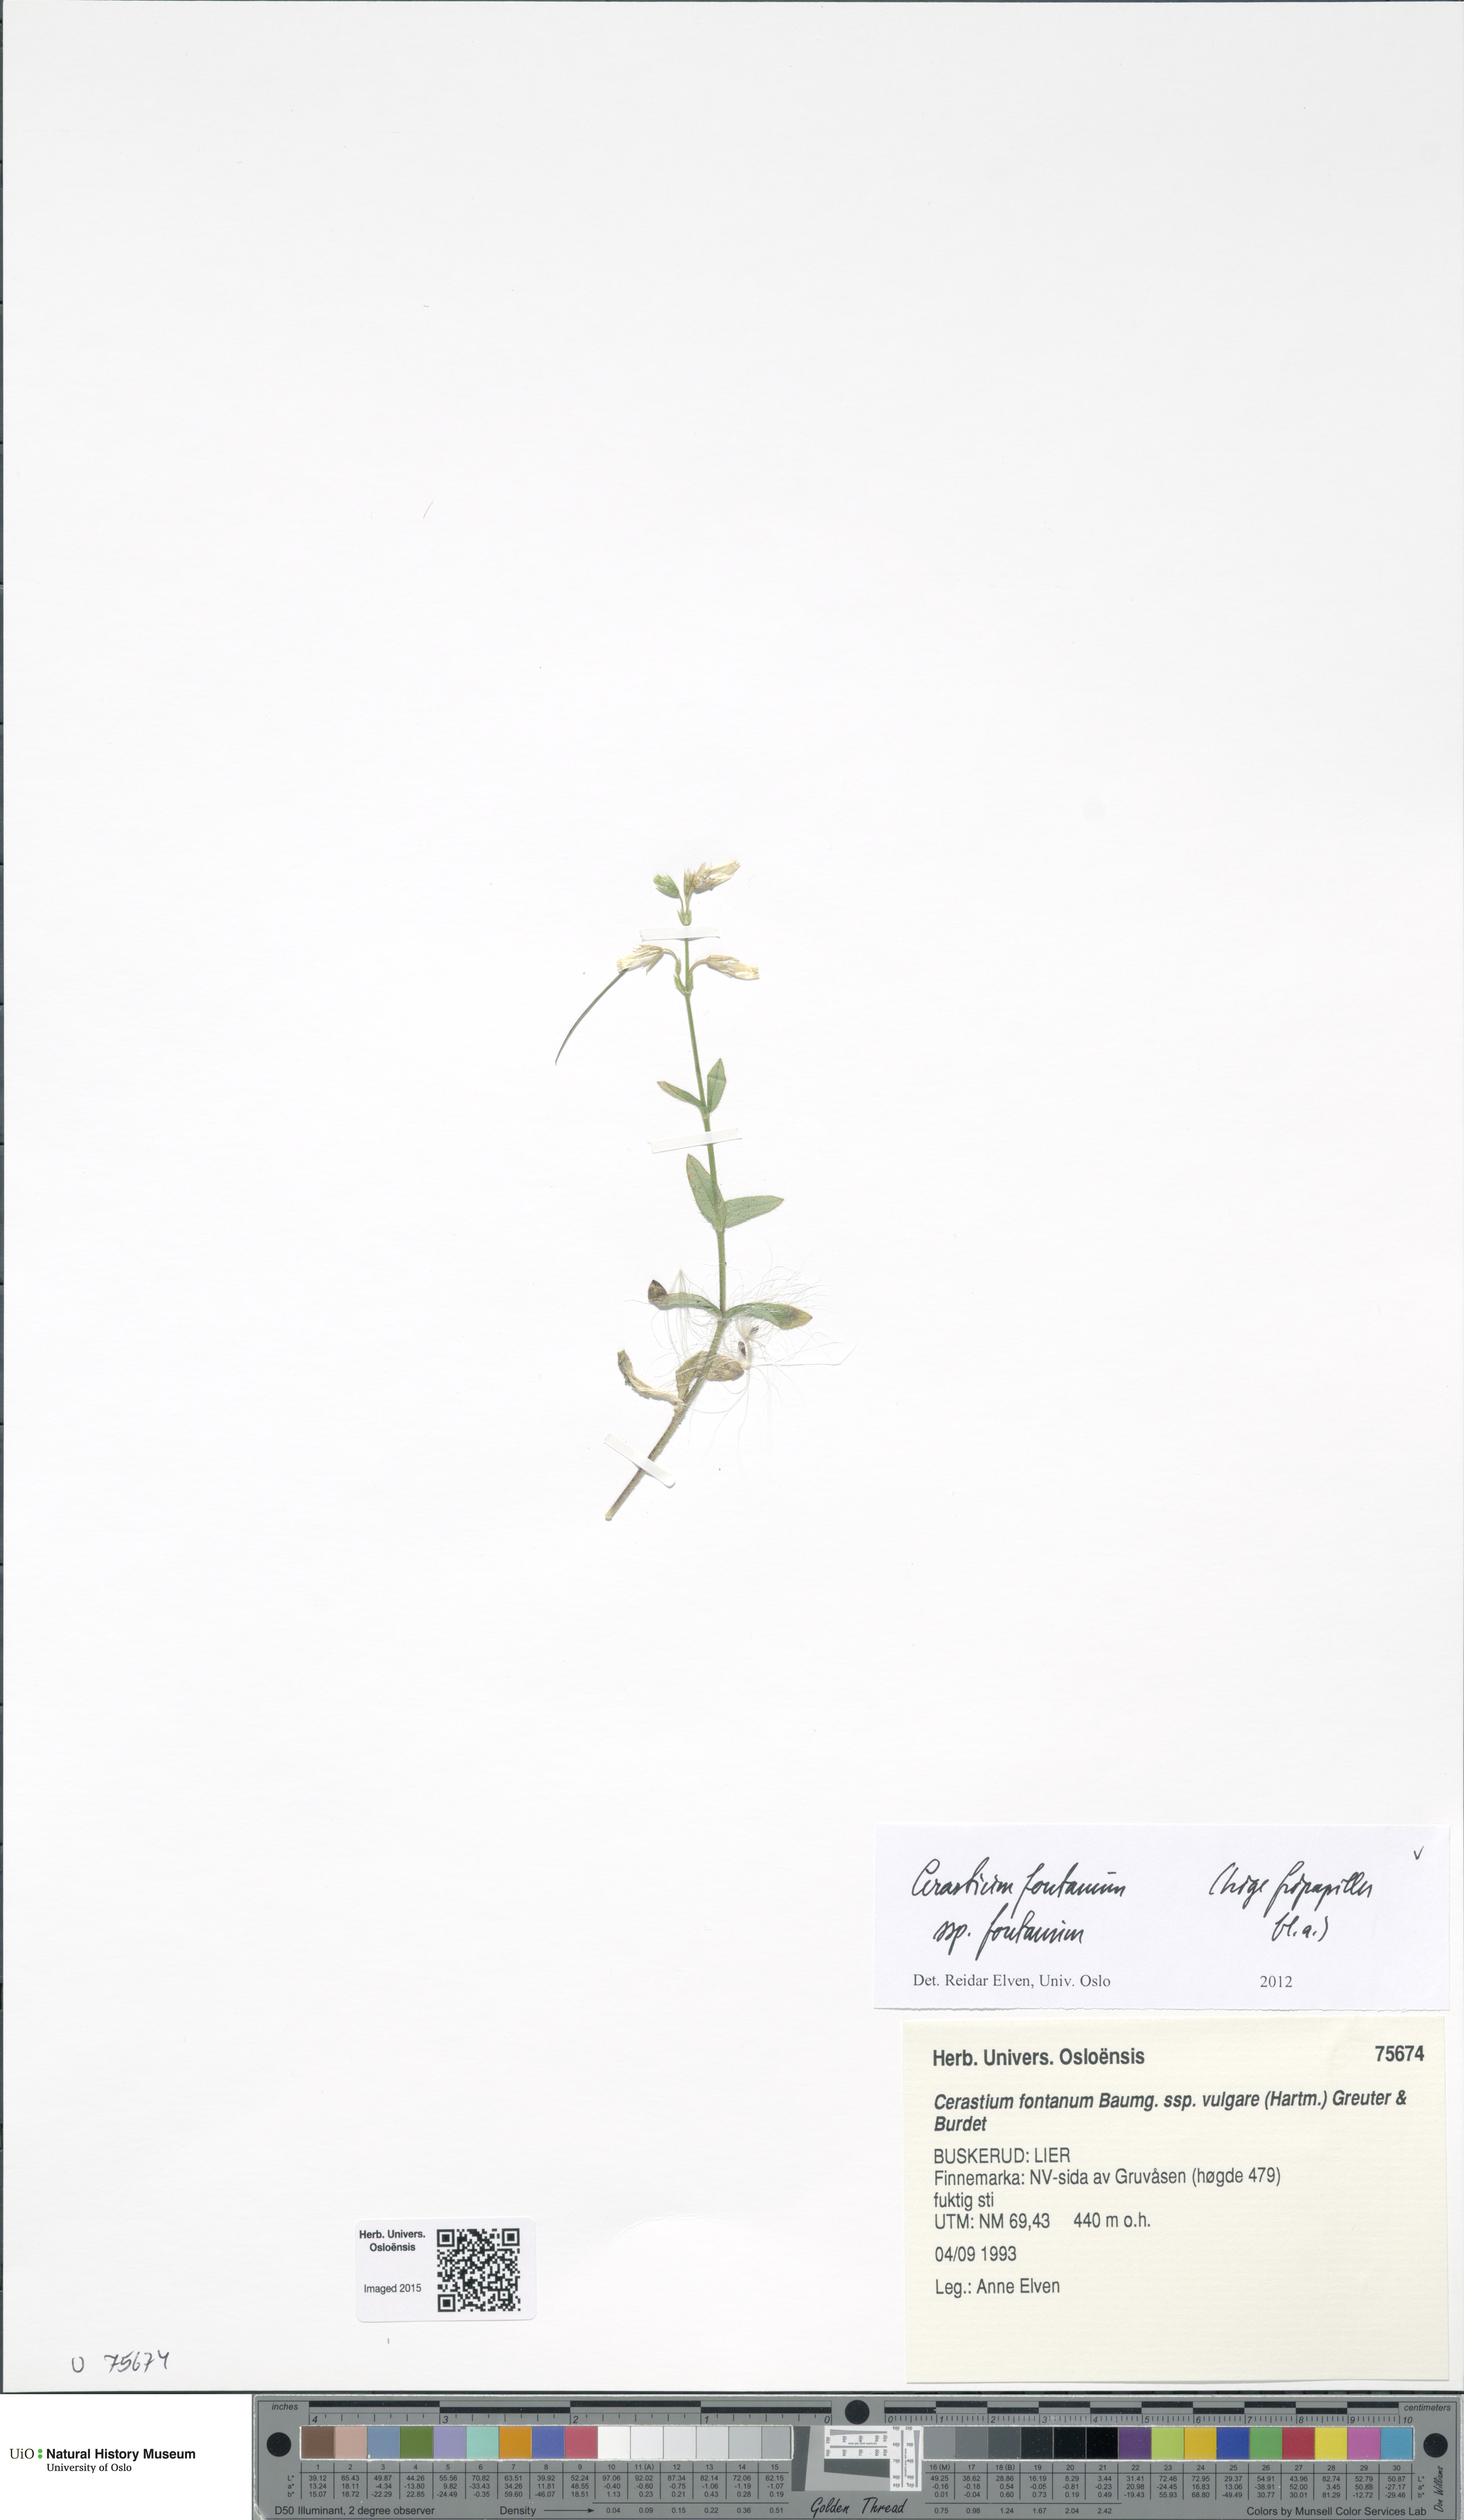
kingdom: Plantae
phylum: Tracheophyta
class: Magnoliopsida
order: Caryophyllales
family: Caryophyllaceae
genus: Cerastium
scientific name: Cerastium fontanum
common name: Common mouse-ear
